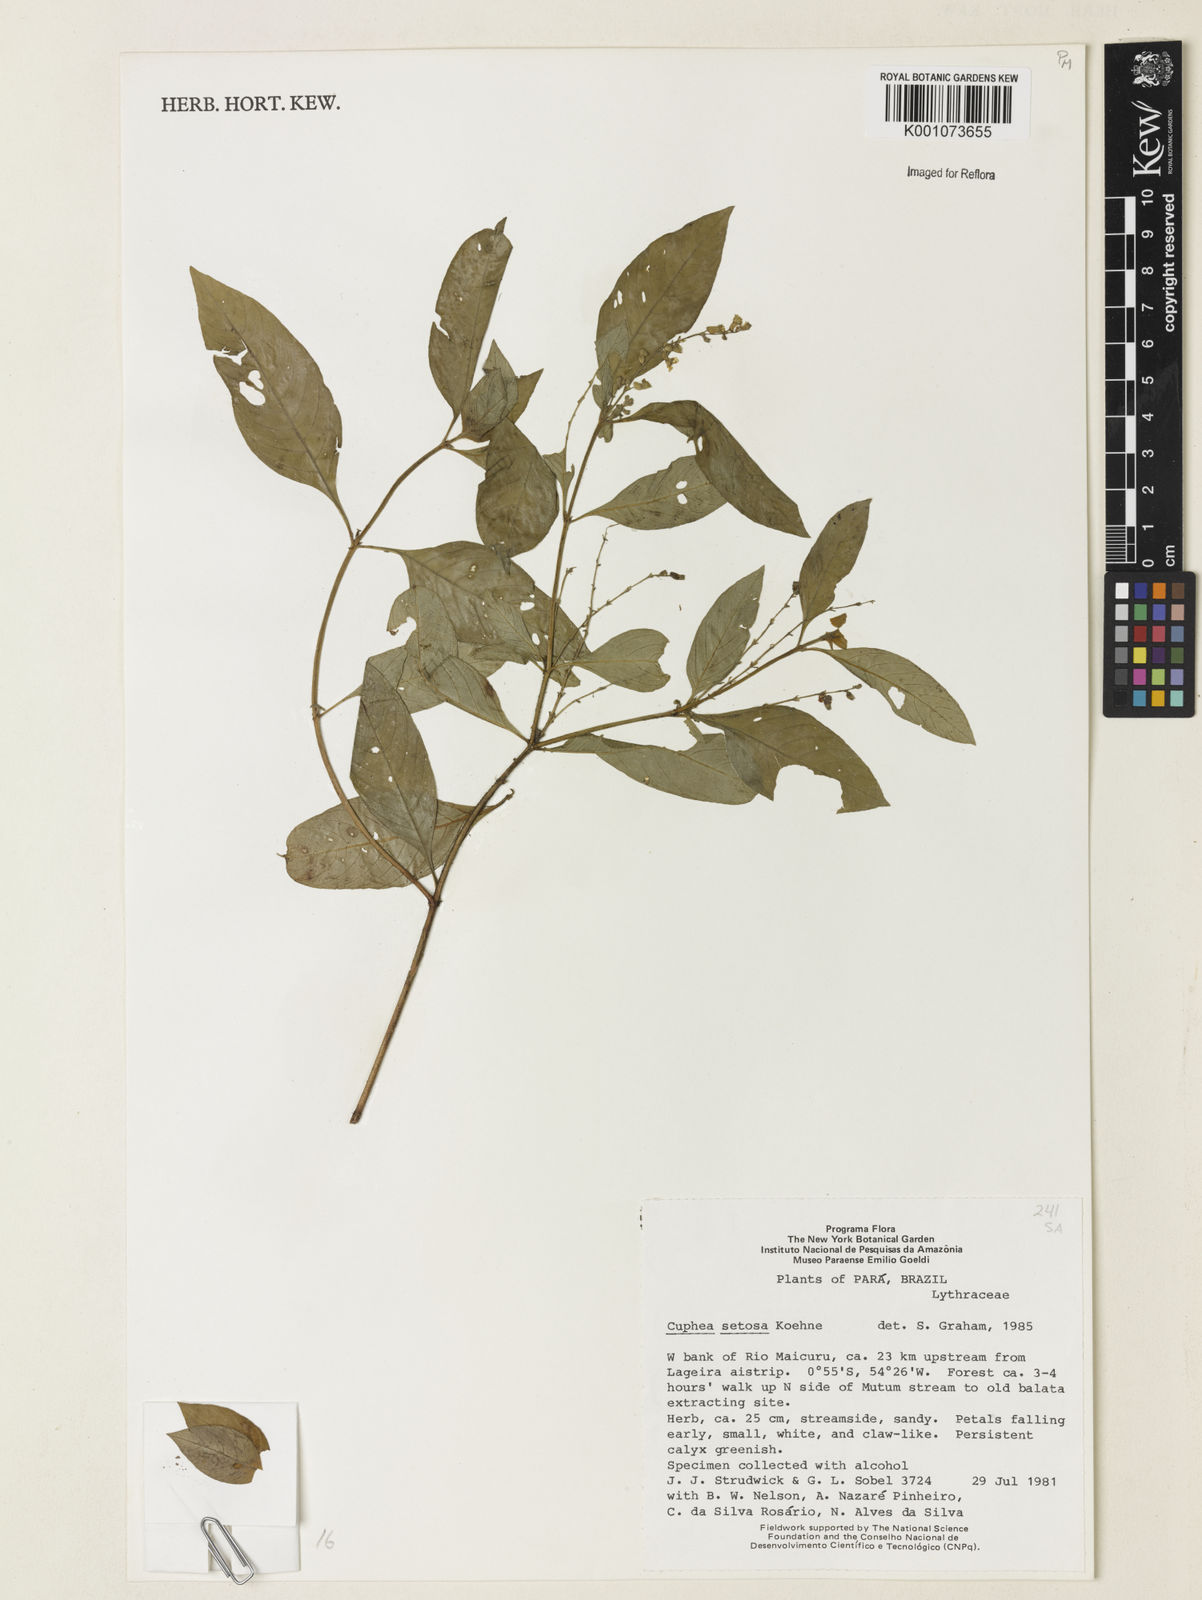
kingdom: Plantae
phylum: Tracheophyta
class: Magnoliopsida
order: Myrtales
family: Lythraceae
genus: Cuphea
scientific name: Cuphea setosa
